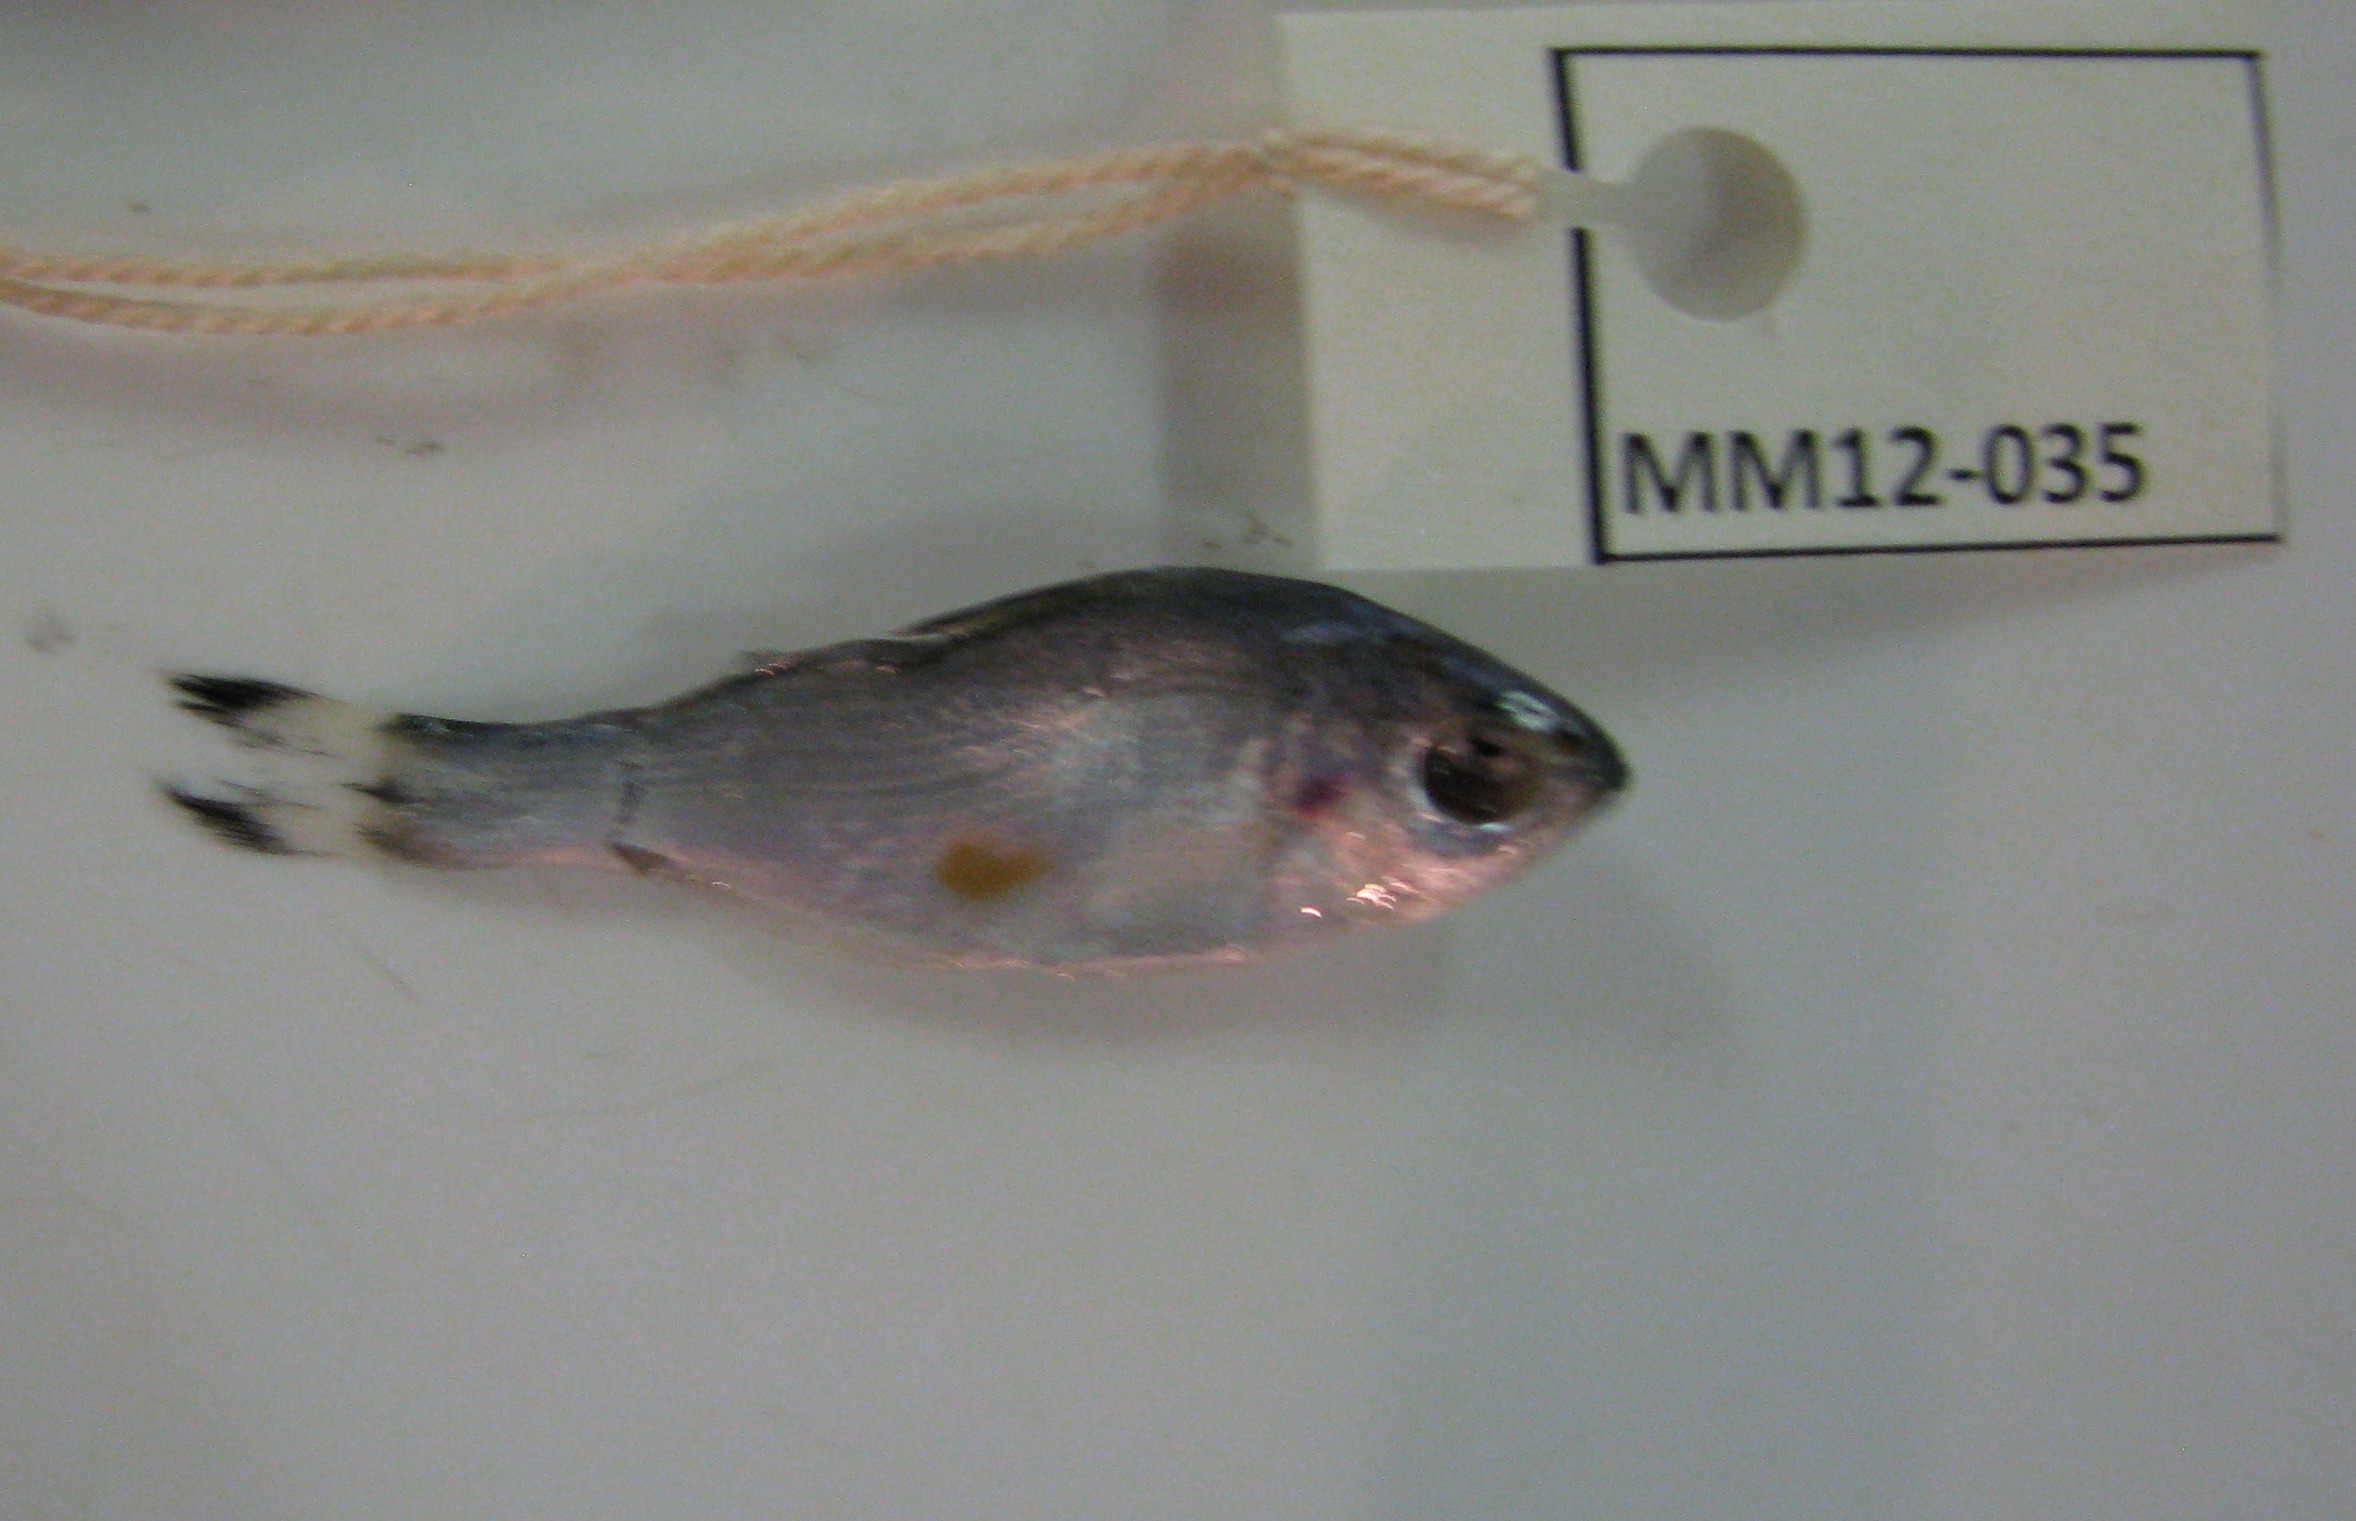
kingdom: Animalia
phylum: Chordata
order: Perciformes
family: Kuhliidae
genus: Kuhlia
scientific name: Kuhlia mugil
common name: Barred flagtail
